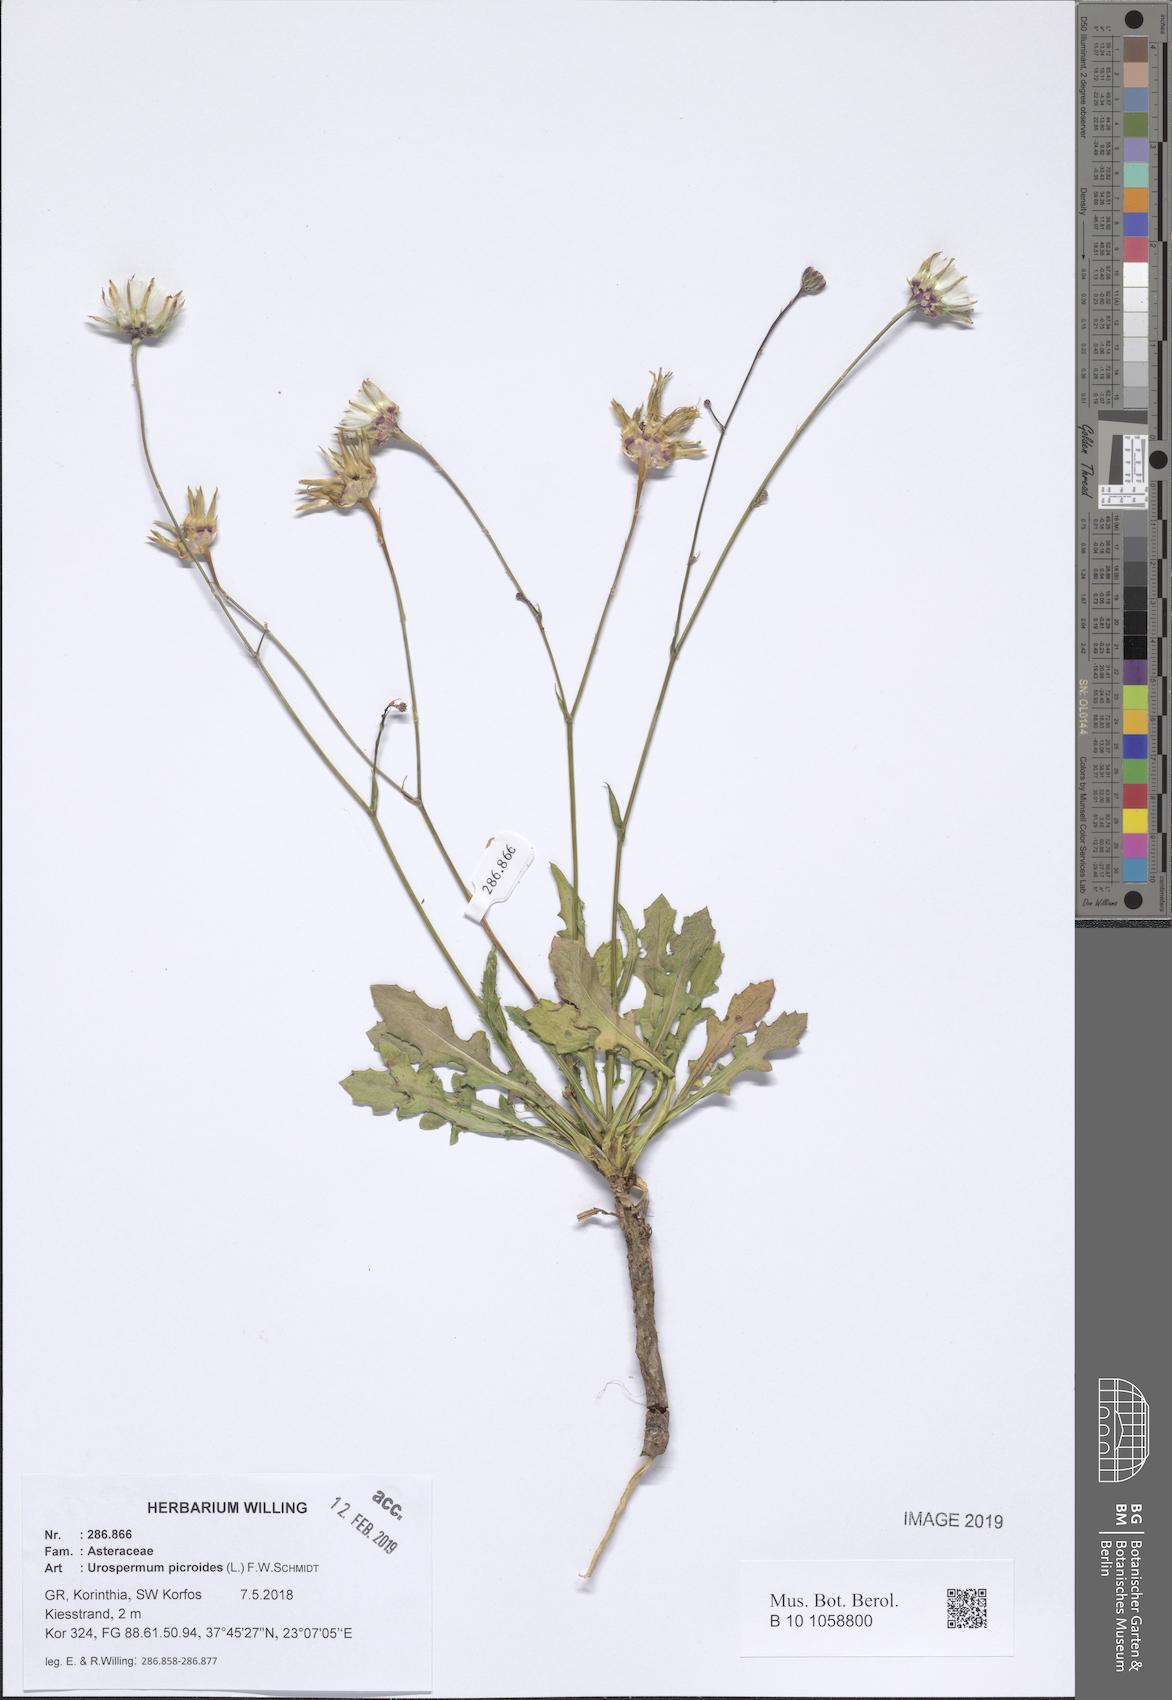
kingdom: Plantae
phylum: Tracheophyta
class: Magnoliopsida
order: Asterales
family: Asteraceae
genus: Urospermum
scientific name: Urospermum picroides
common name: False hawkbit
